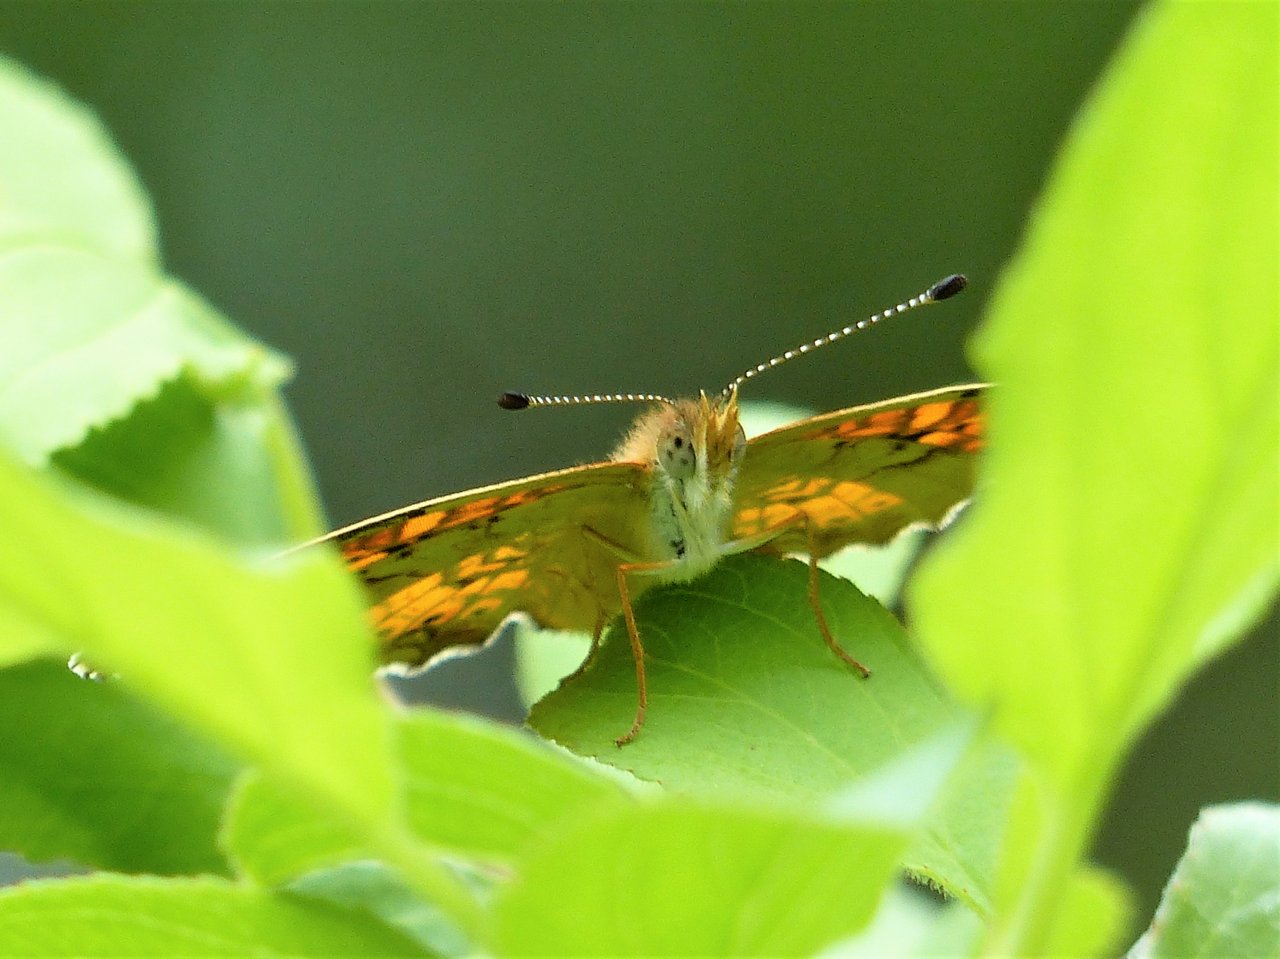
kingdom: Animalia
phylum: Arthropoda
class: Insecta
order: Lepidoptera
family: Nymphalidae
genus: Phyciodes
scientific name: Phyciodes batesii
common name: Tawny Crescent
